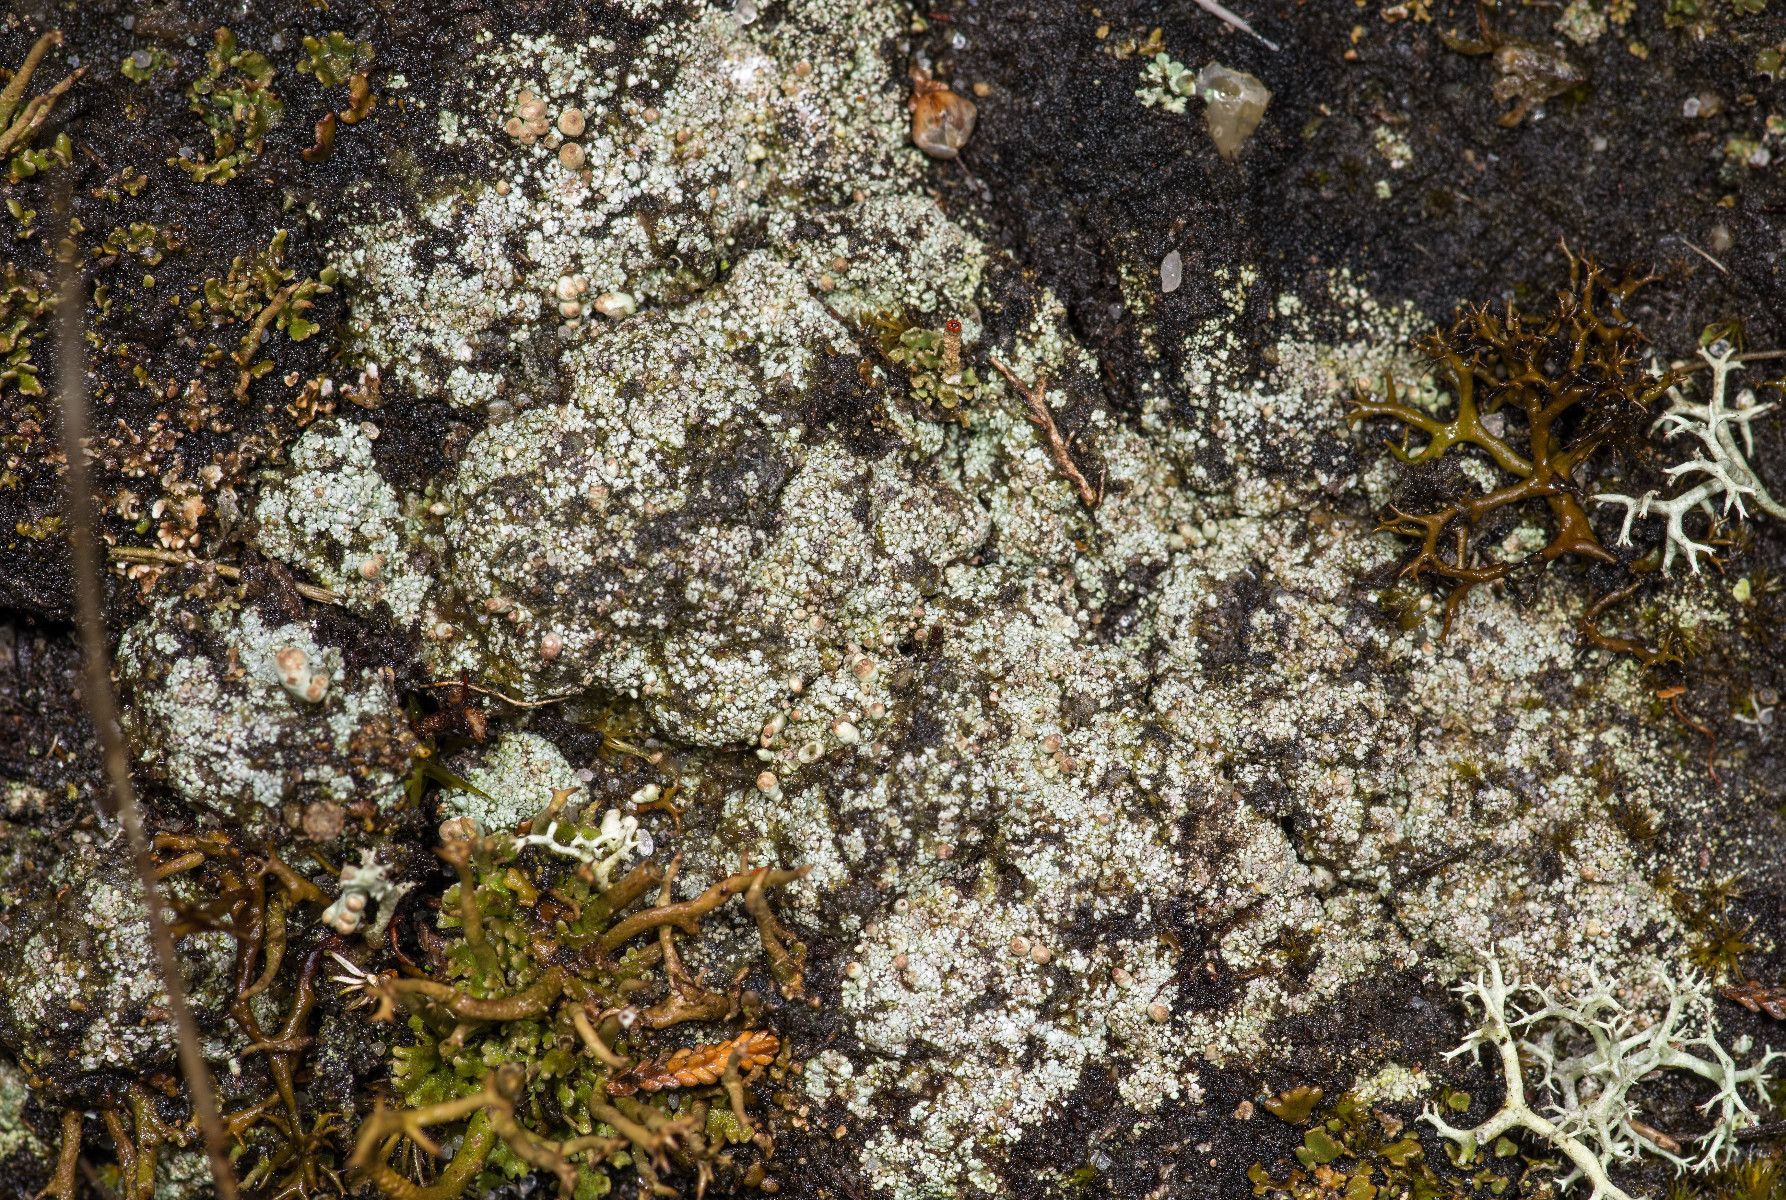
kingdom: Fungi
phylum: Ascomycota
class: Lecanoromycetes
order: Lecanorales
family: Cladoniaceae
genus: Pycnothelia
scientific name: Pycnothelia papillaria
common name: blødvortet knoplav
